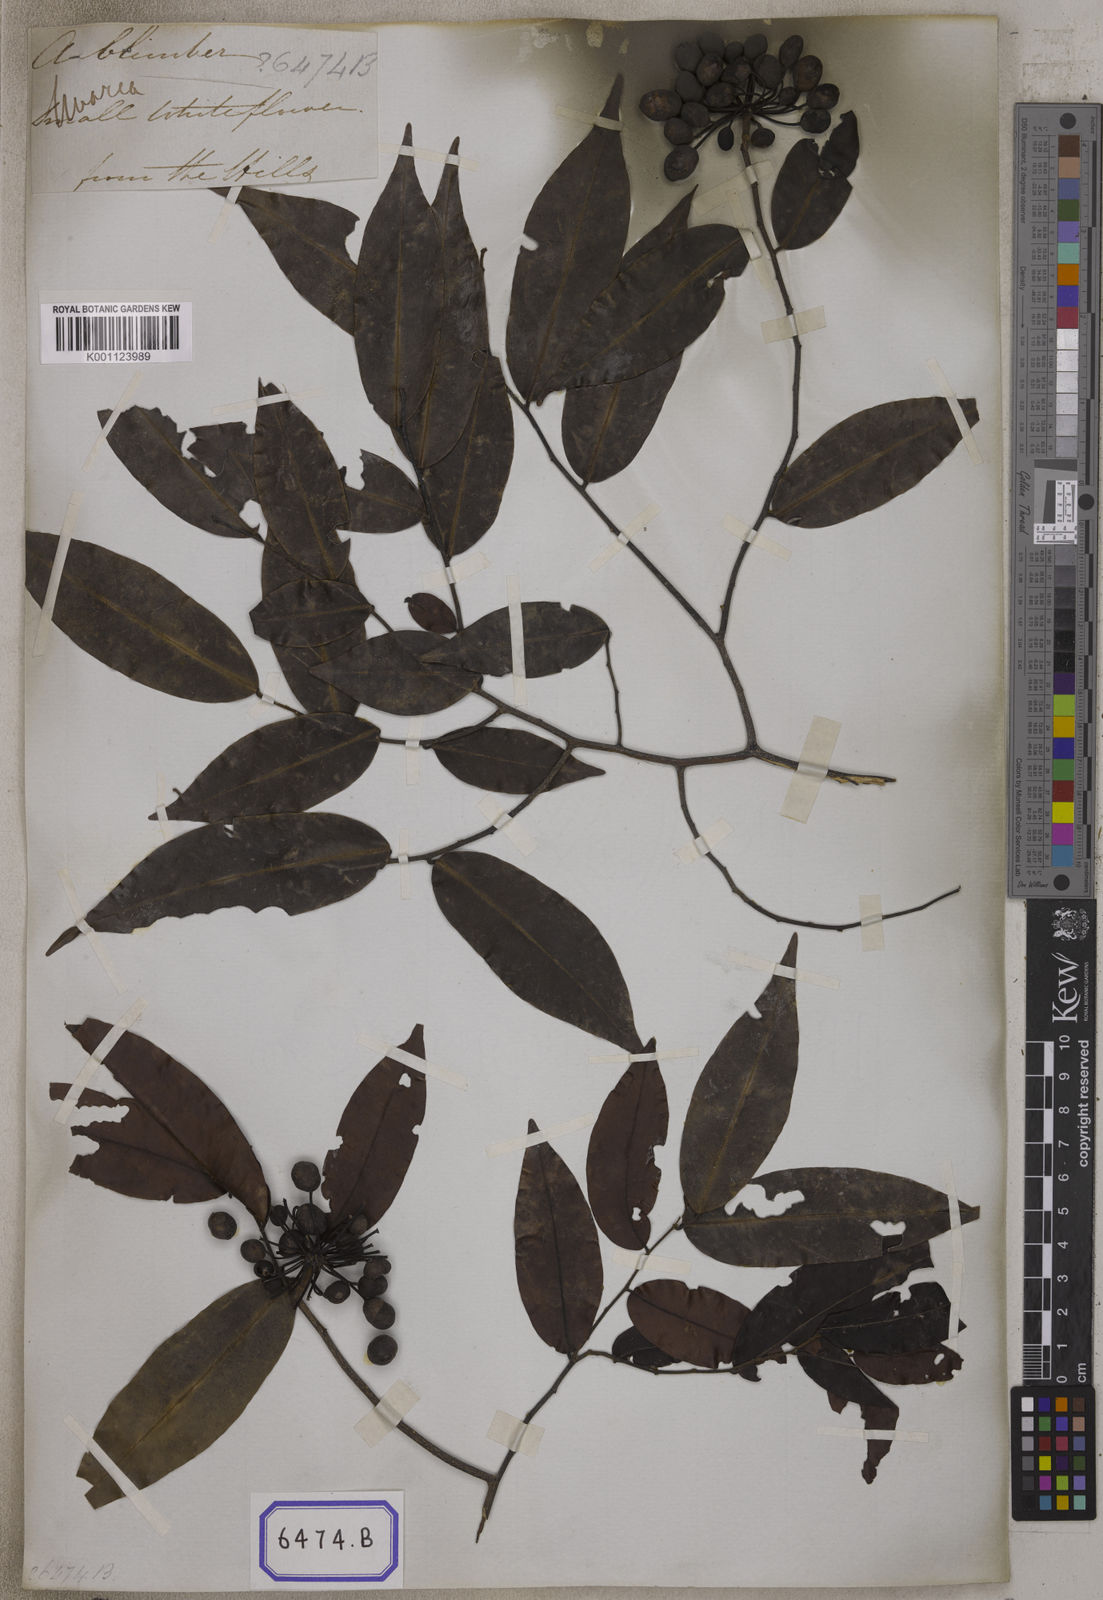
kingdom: Plantae
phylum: Tracheophyta
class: Magnoliopsida
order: Magnoliales
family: Annonaceae
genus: Mitrella
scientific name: Mitrella kentii
